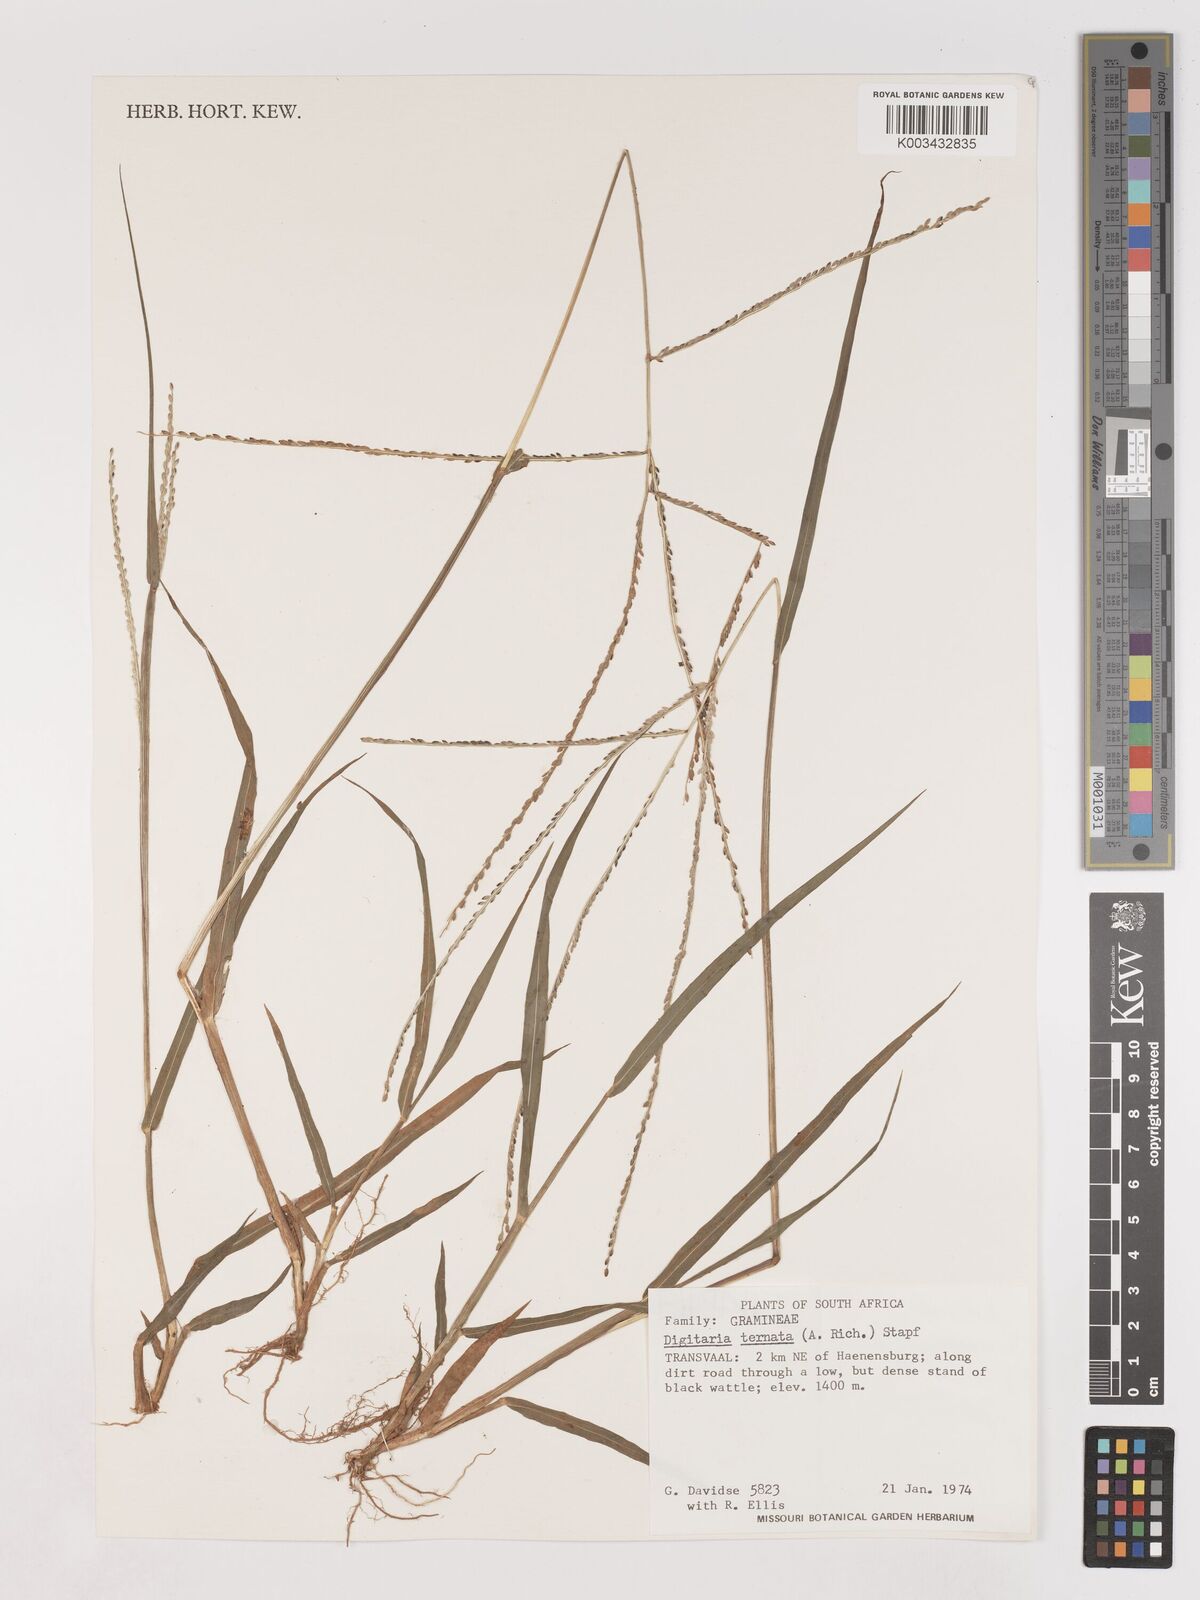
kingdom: Plantae
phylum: Tracheophyta
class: Liliopsida
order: Poales
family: Poaceae
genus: Digitaria
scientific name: Digitaria ternata
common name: Blackseed crabgrass
